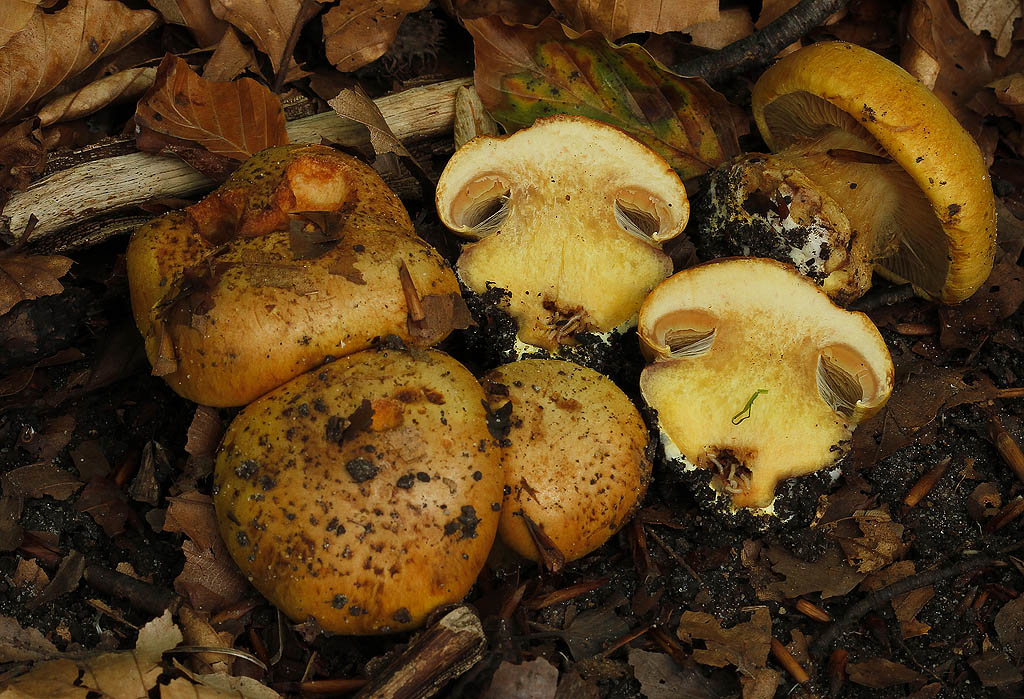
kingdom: Fungi
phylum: Basidiomycota
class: Agaricomycetes
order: Agaricales
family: Cortinariaceae
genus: Calonarius
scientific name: Calonarius alcalinophilus
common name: gyldenbrun slørhat
